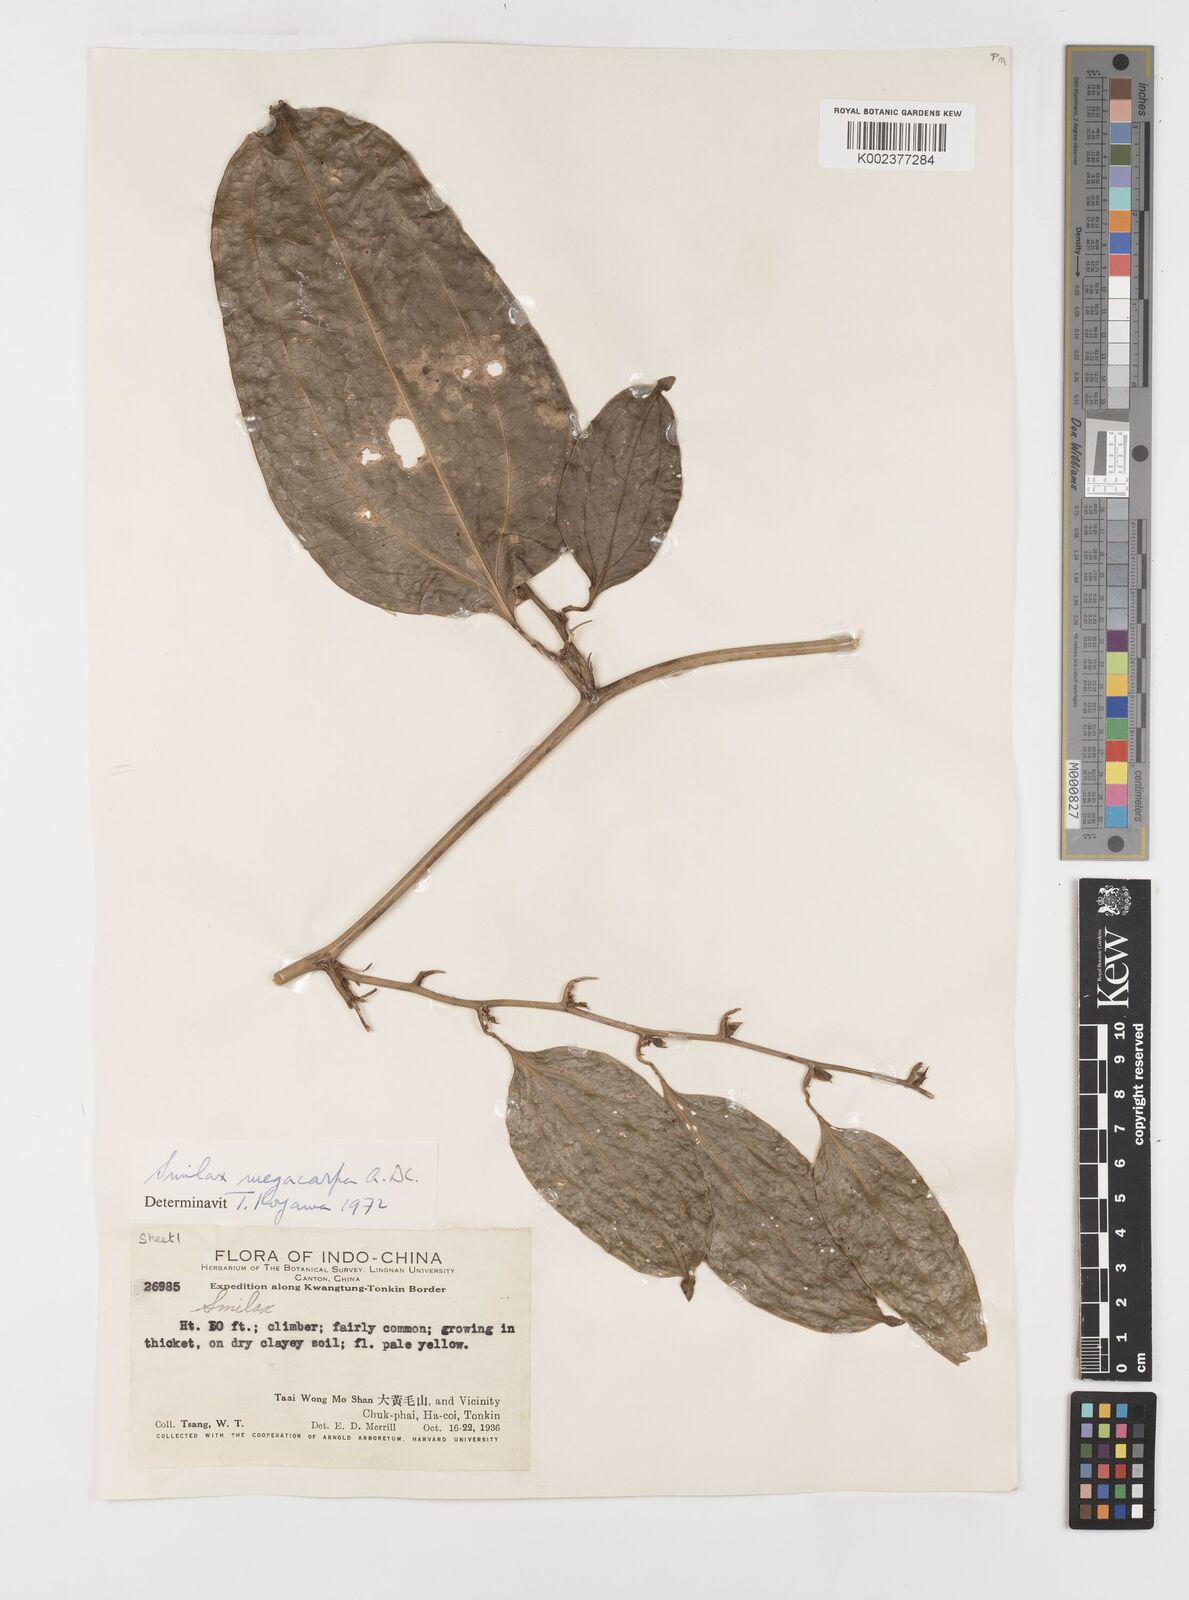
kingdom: Plantae
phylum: Tracheophyta
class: Liliopsida
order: Liliales
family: Smilacaceae
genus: Smilax
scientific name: Smilax megacarpa
